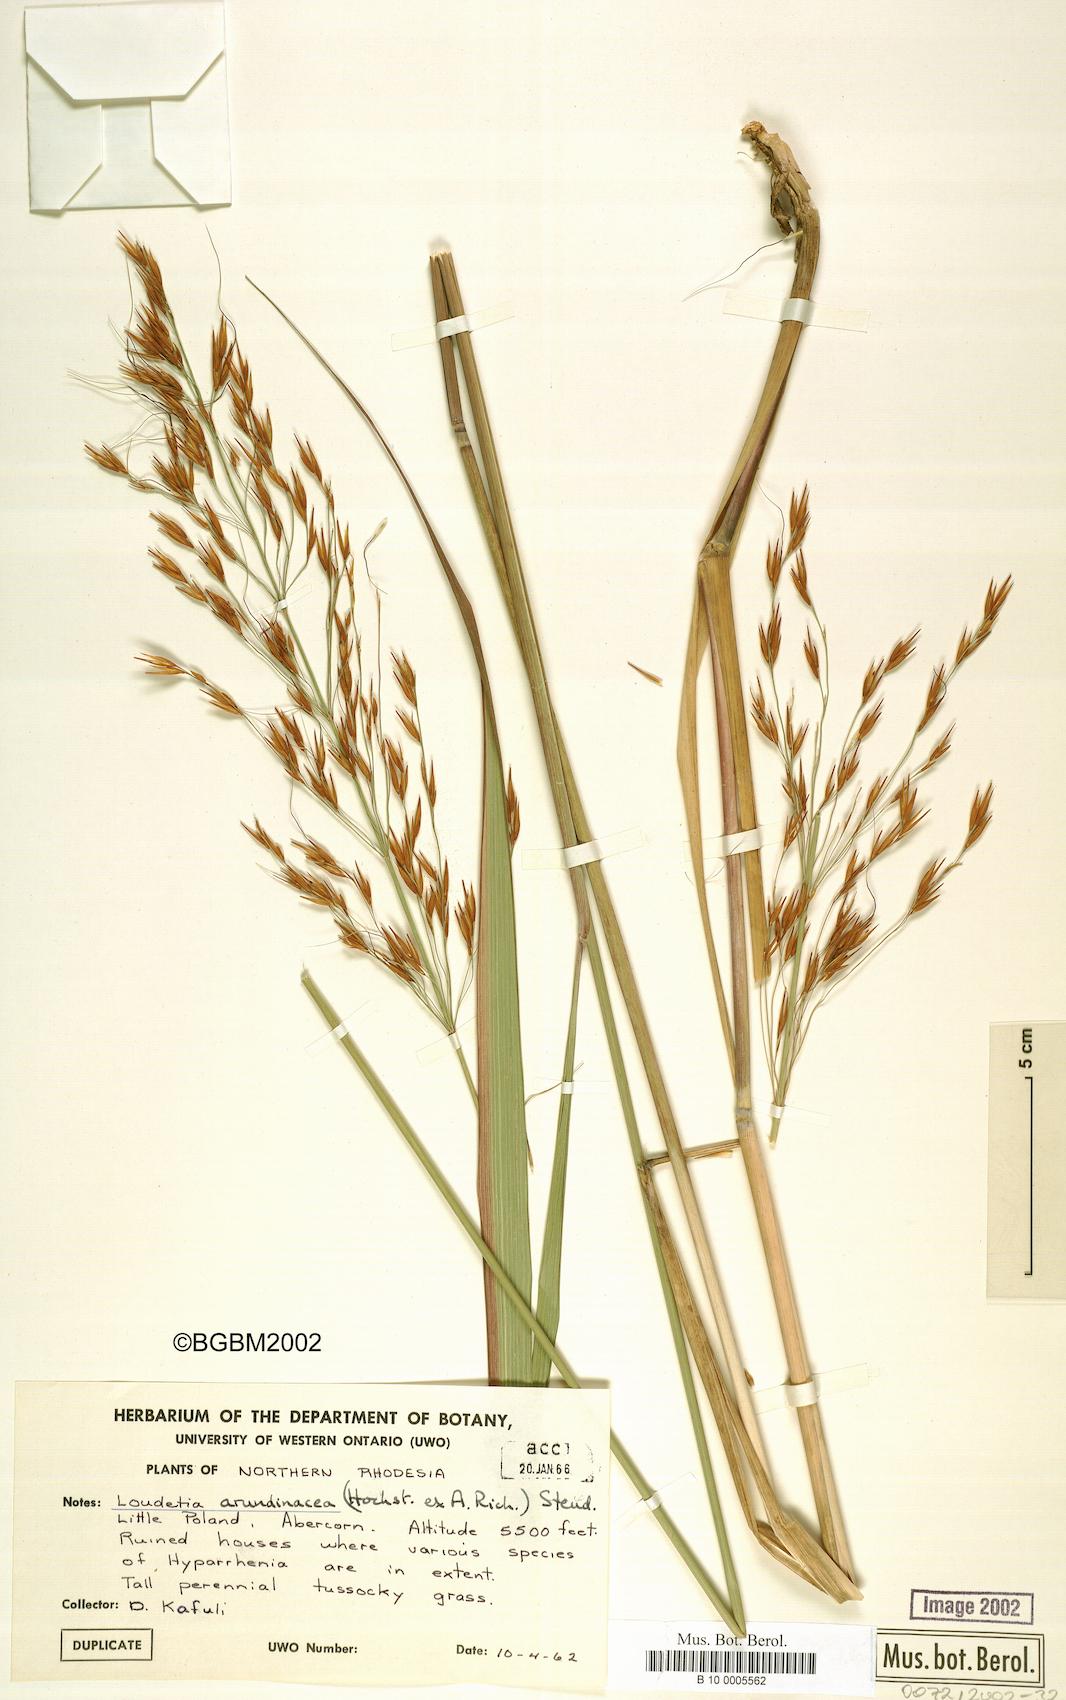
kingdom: Plantae
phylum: Tracheophyta
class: Liliopsida
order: Poales
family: Poaceae
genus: Loudetia
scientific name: Loudetia arundinacea
